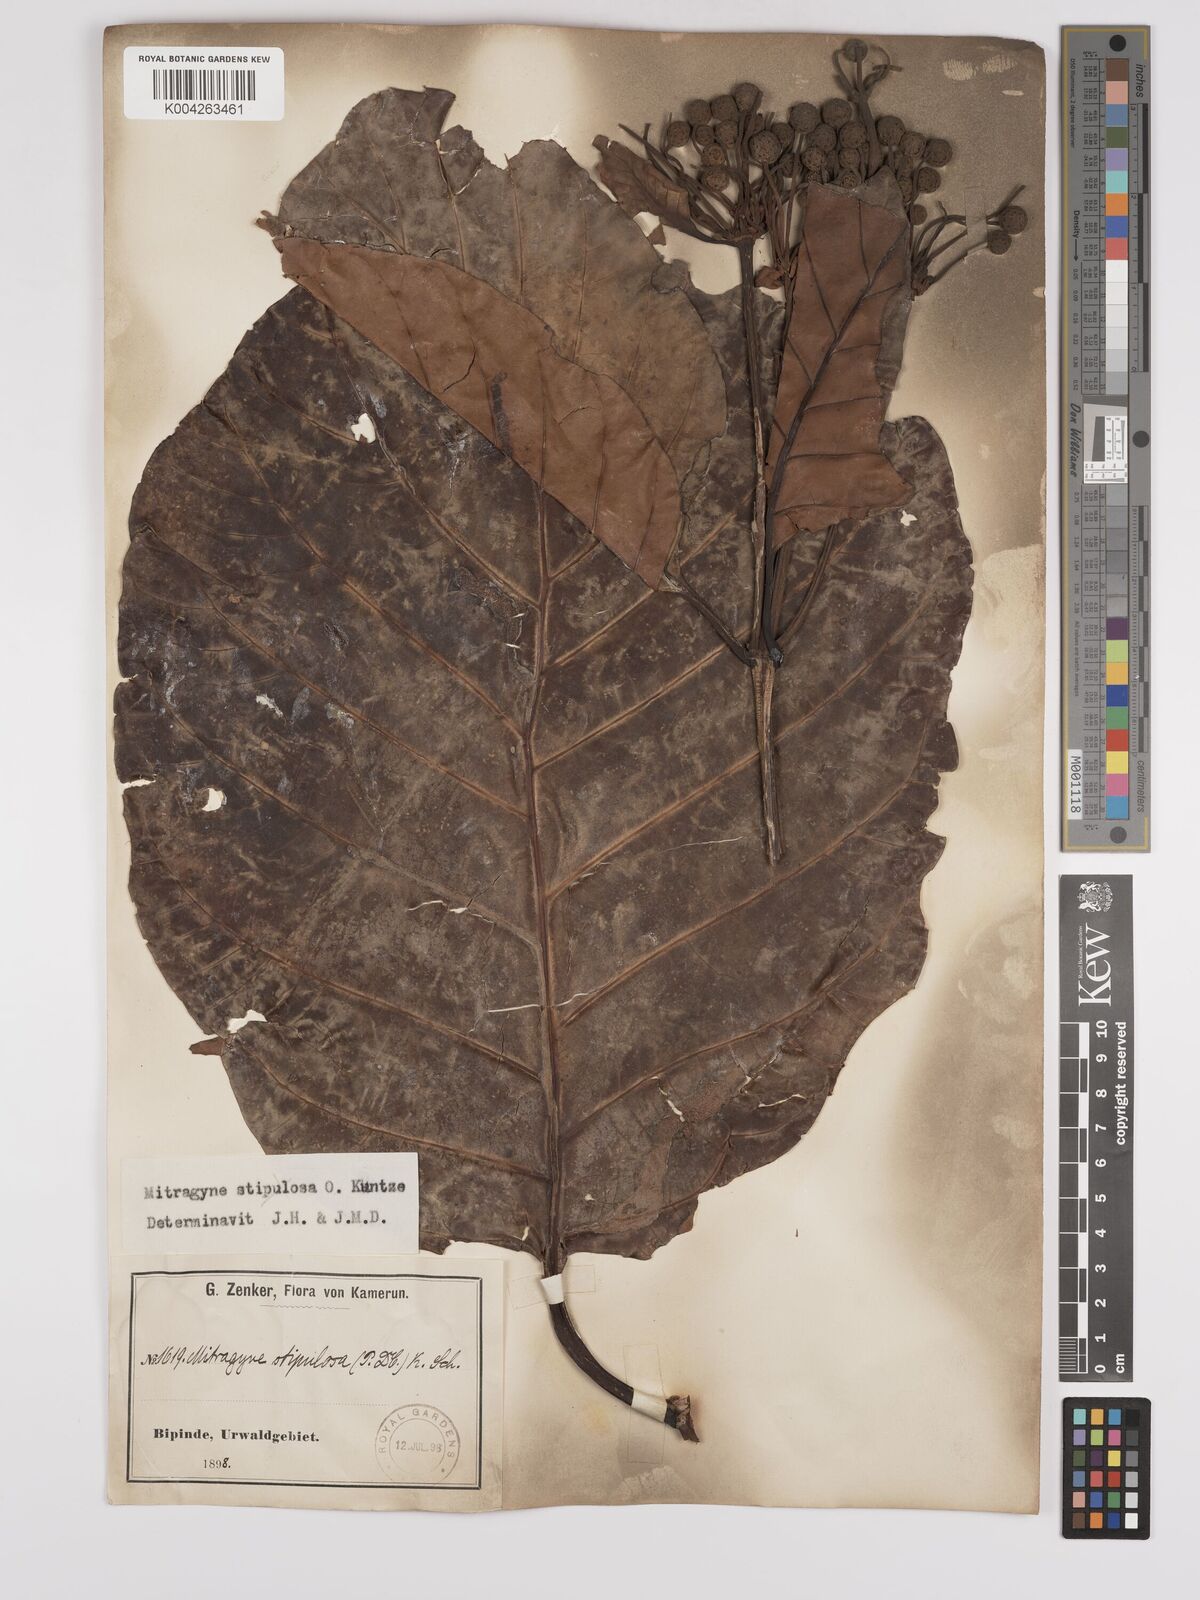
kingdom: Plantae
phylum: Tracheophyta
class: Magnoliopsida
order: Gentianales
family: Rubiaceae
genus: Mitragyna
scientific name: Mitragyna stipulosa
